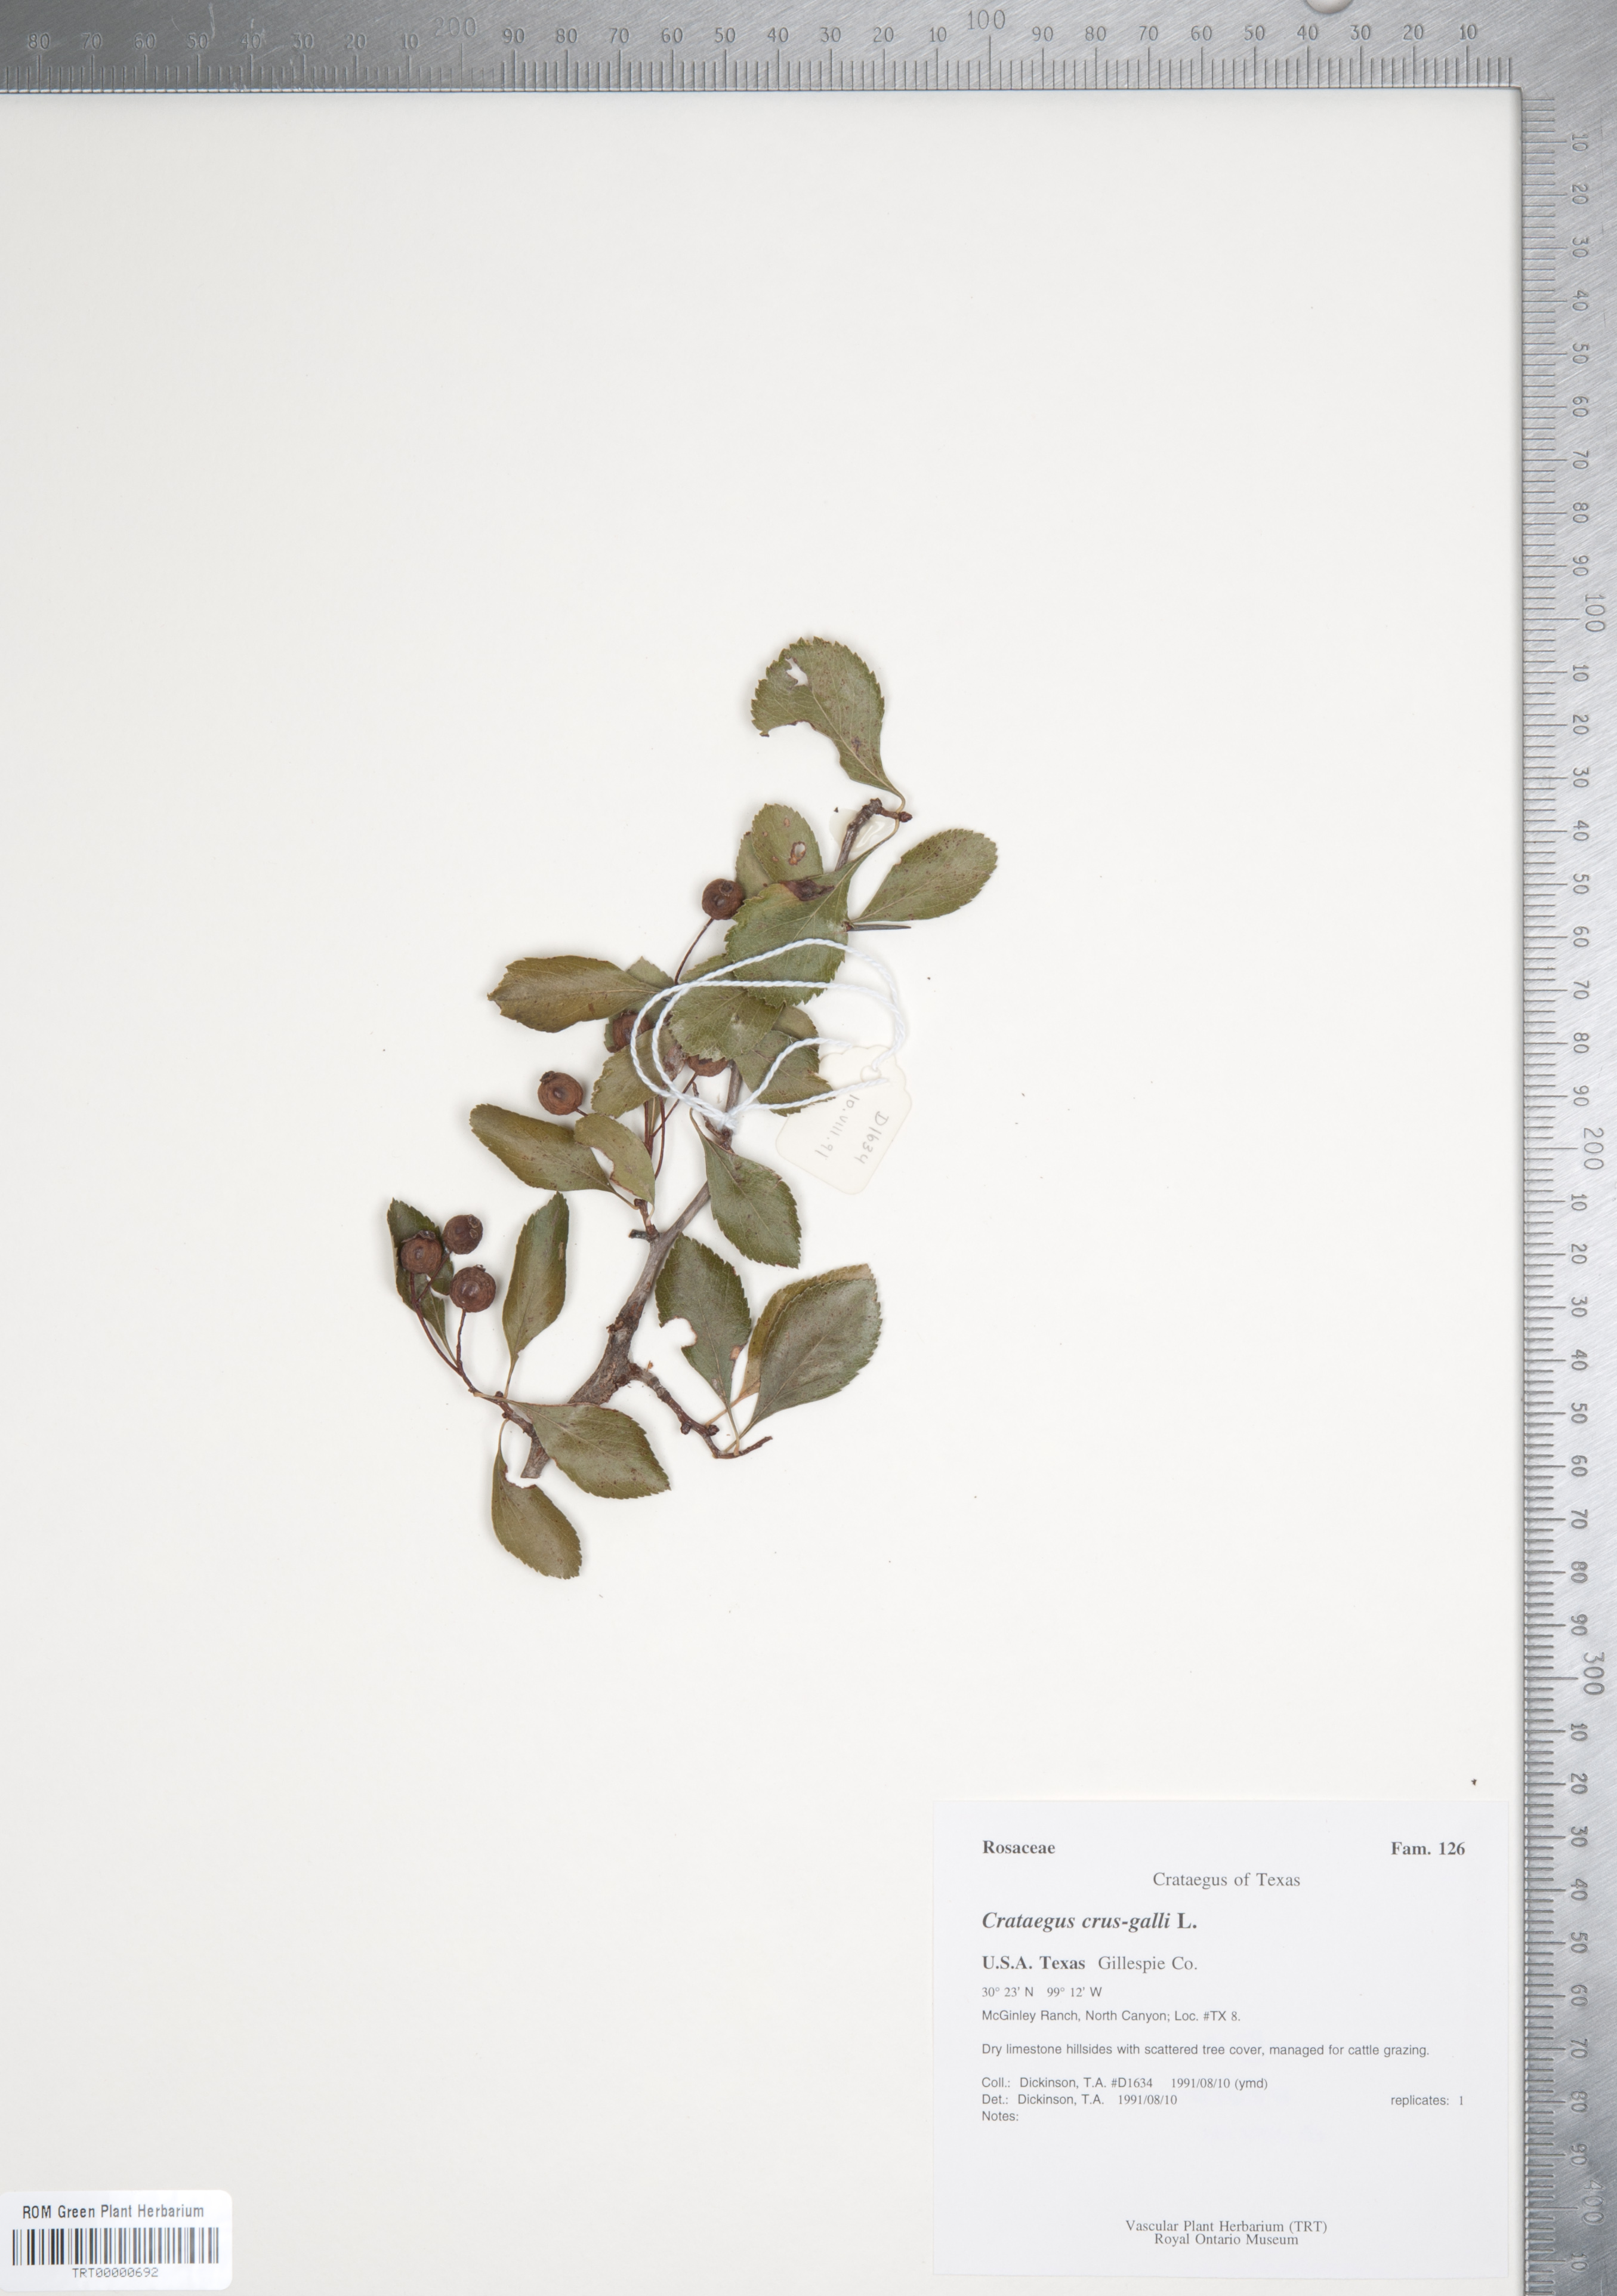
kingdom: Plantae
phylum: Tracheophyta
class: Magnoliopsida
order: Rosales
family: Rosaceae
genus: Crataegus
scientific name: Crataegus crus-galli
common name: Cockspurthorn
